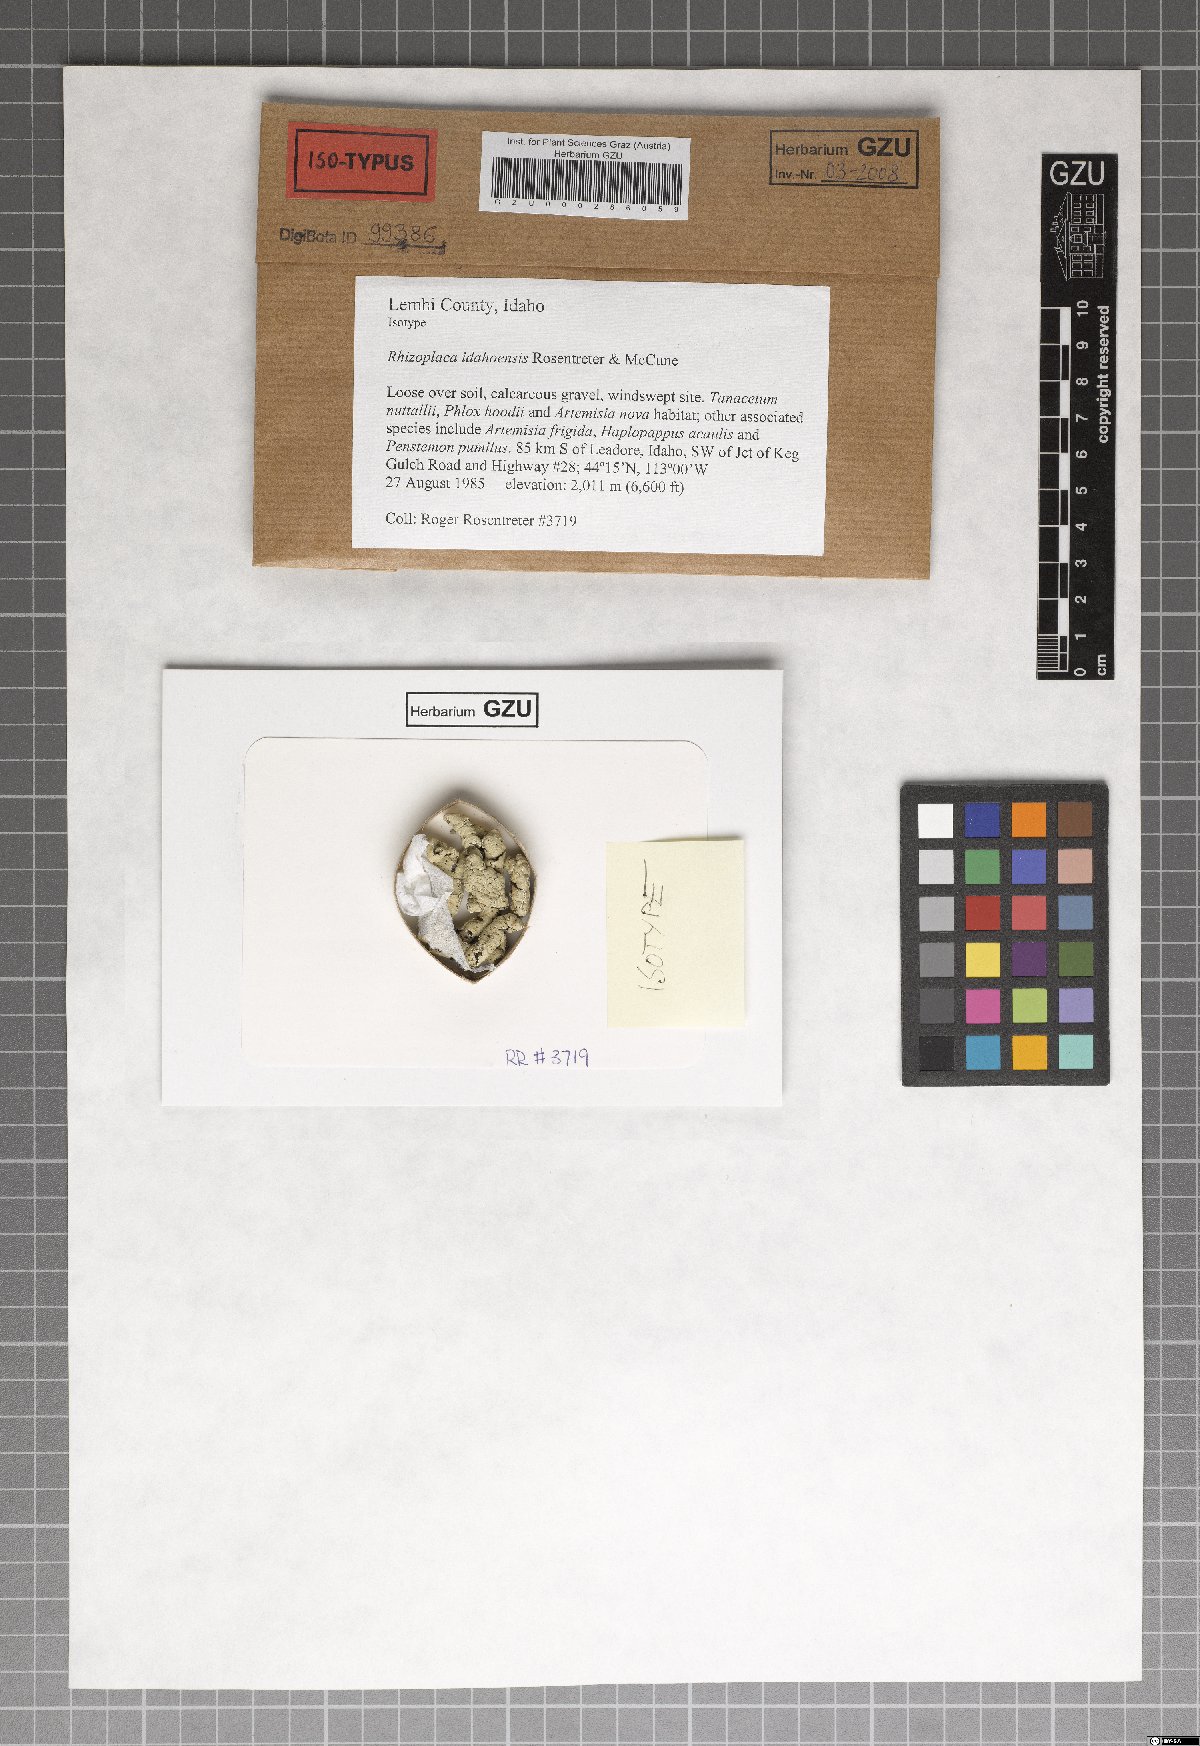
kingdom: Fungi
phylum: Ascomycota
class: Lecanoromycetes
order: Lecanorales
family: Lecanoraceae
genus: Rhizoplaca
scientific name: Rhizoplaca idahoensis
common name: Idaho grouse pellet
